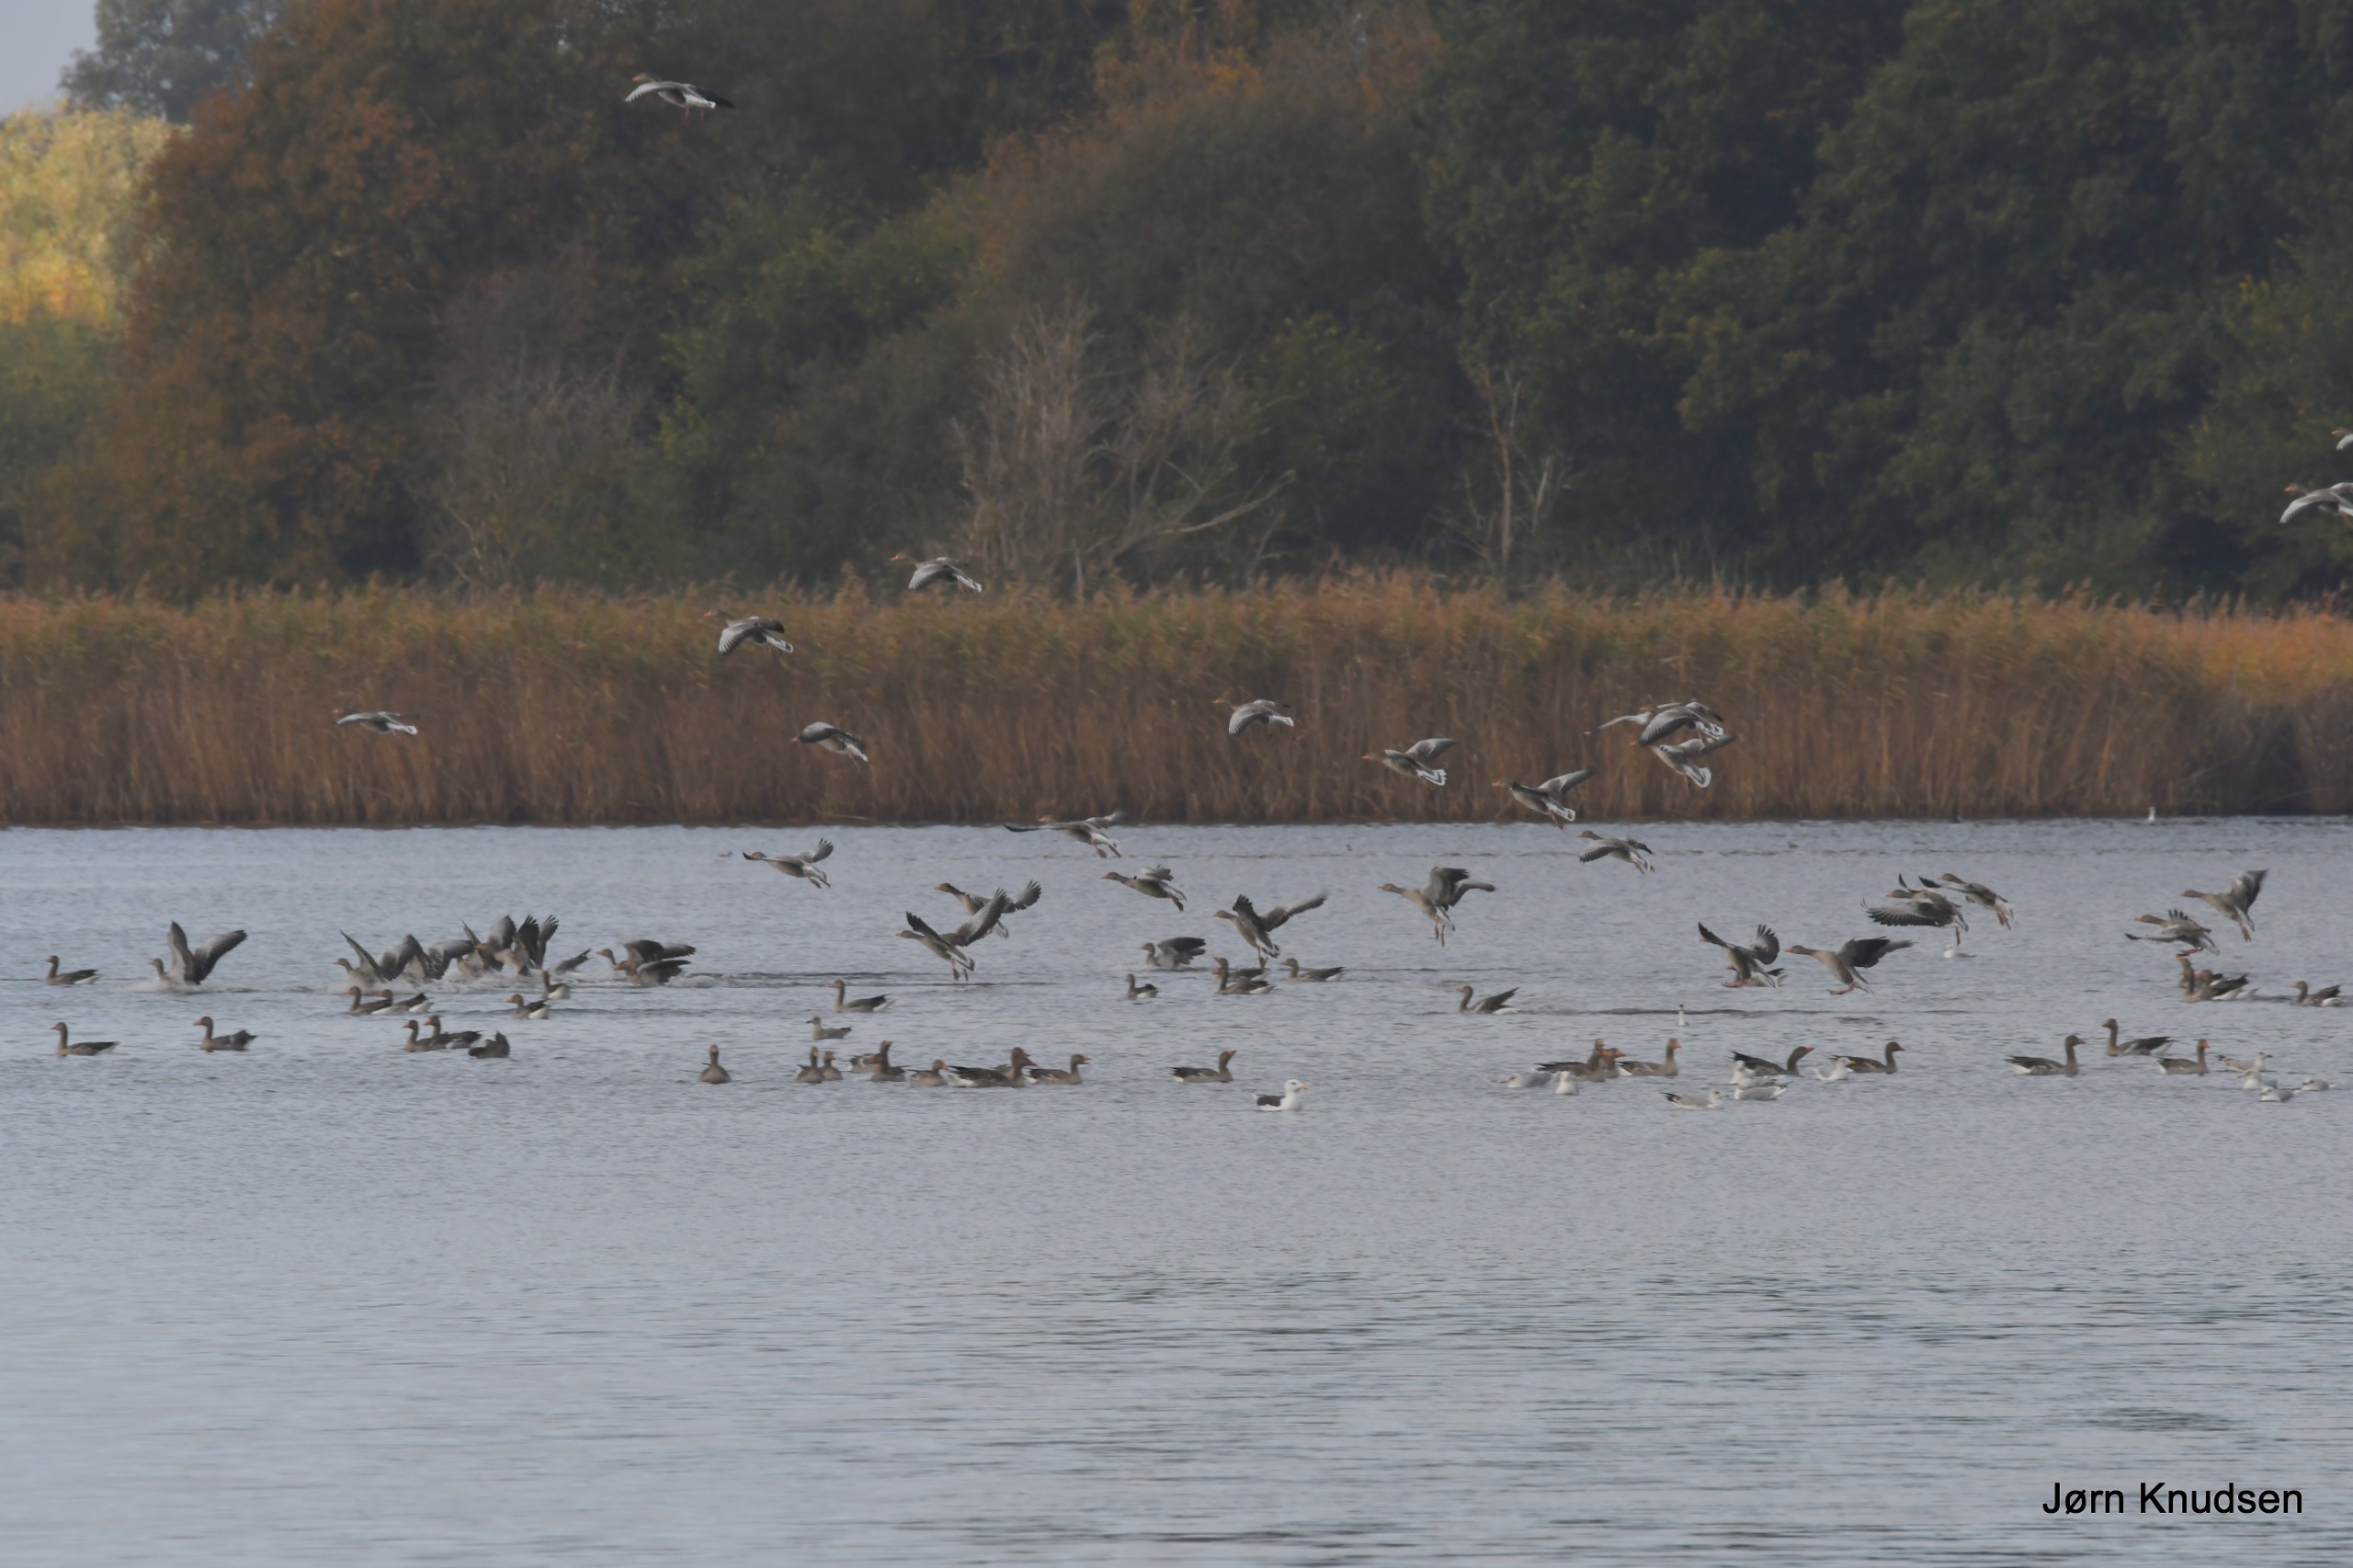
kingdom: Animalia
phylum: Chordata
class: Aves
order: Anseriformes
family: Anatidae
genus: Anser
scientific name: Anser anser
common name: Grågås
